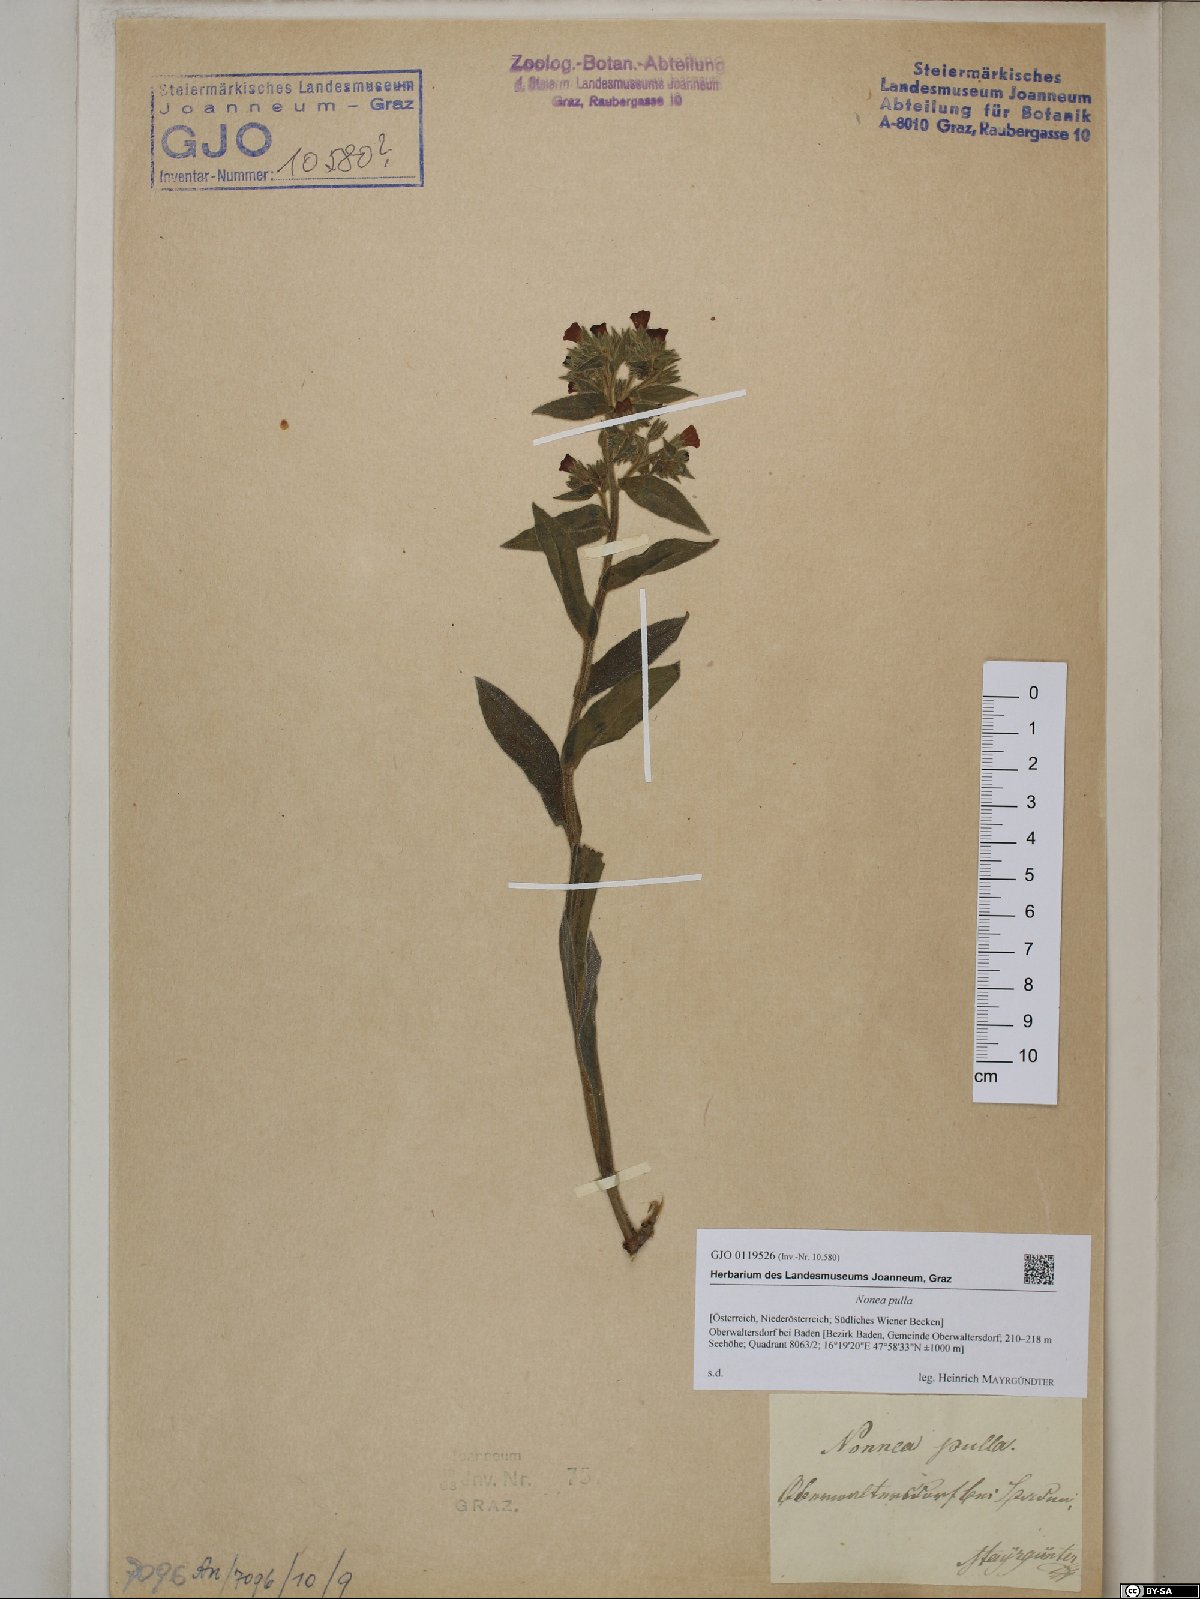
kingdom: Plantae
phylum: Tracheophyta
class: Magnoliopsida
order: Boraginales
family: Boraginaceae
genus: Nonea
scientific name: Nonea pulla
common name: Brown nonea
